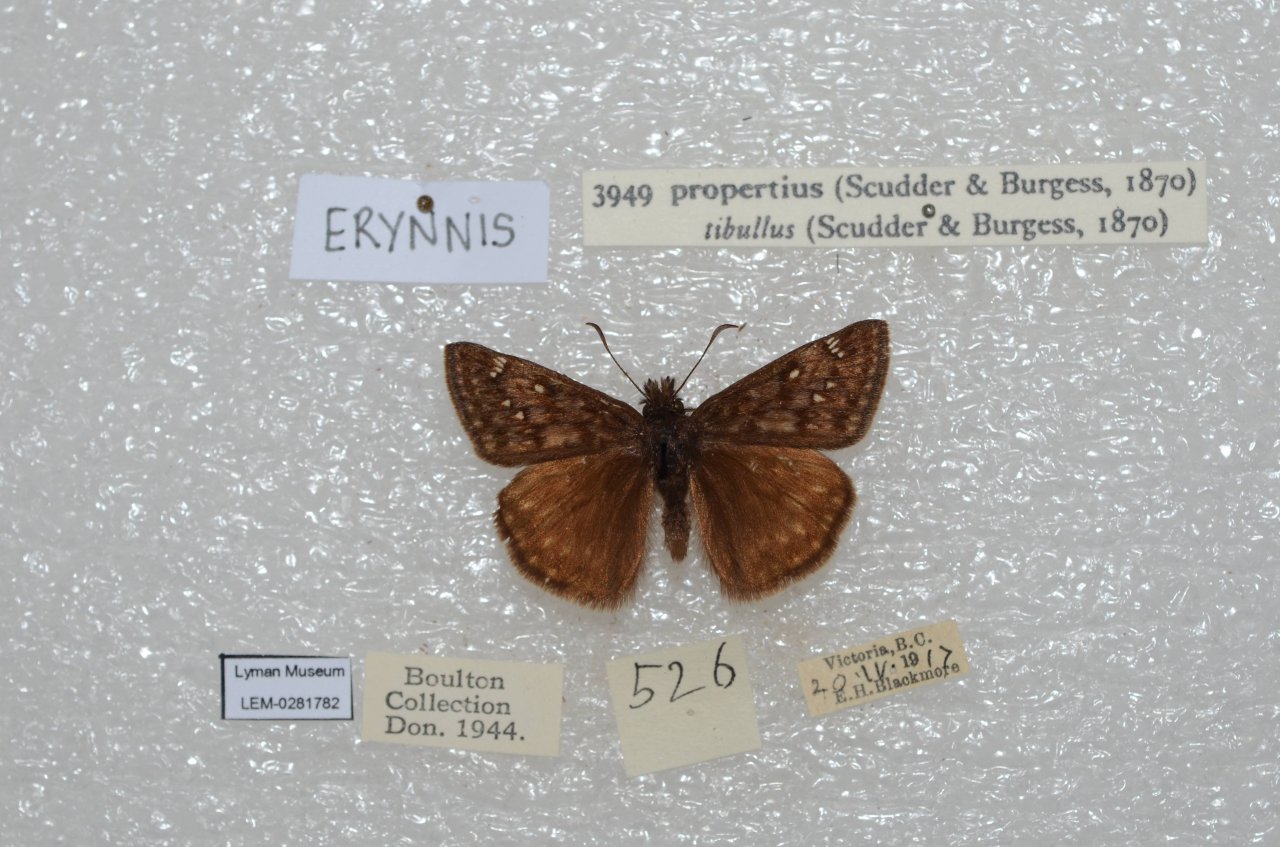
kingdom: Animalia
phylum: Arthropoda
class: Insecta
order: Lepidoptera
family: Hesperiidae
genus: Erynnis
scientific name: Erynnis propertius
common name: Propertius Duskywing
